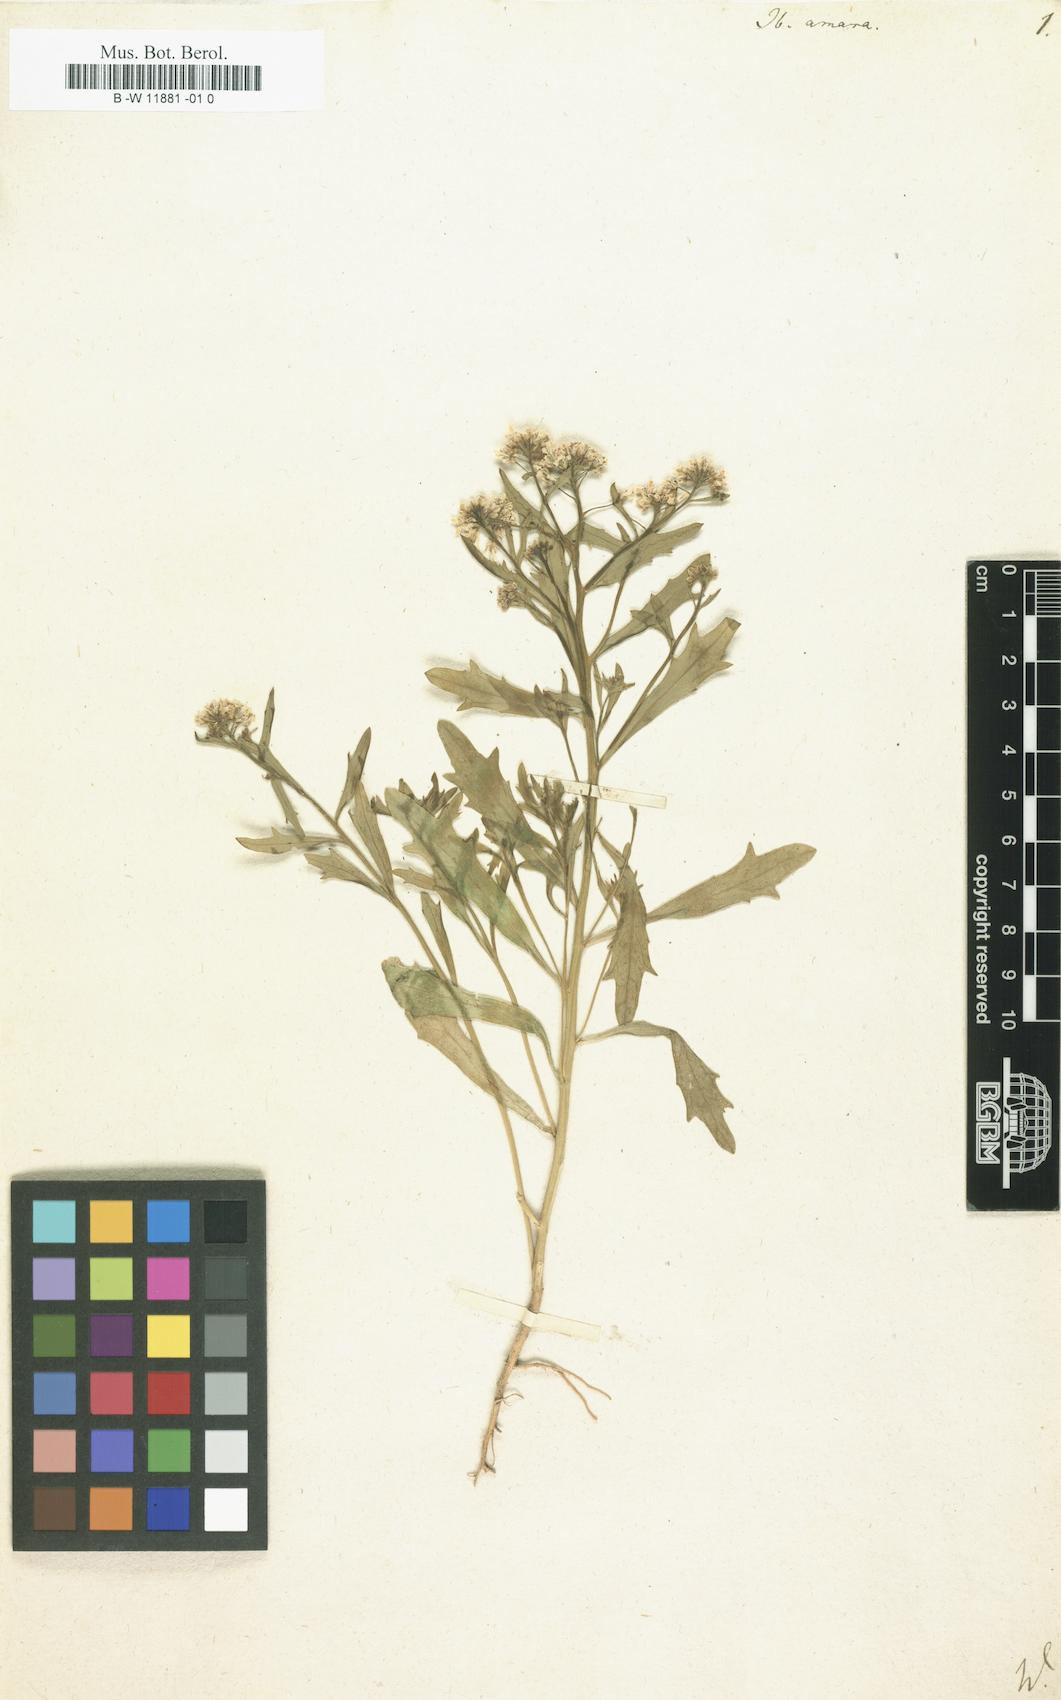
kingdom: Plantae
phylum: Tracheophyta
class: Magnoliopsida
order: Brassicales
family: Brassicaceae
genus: Iberis
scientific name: Iberis amara
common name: Annual candytuft
